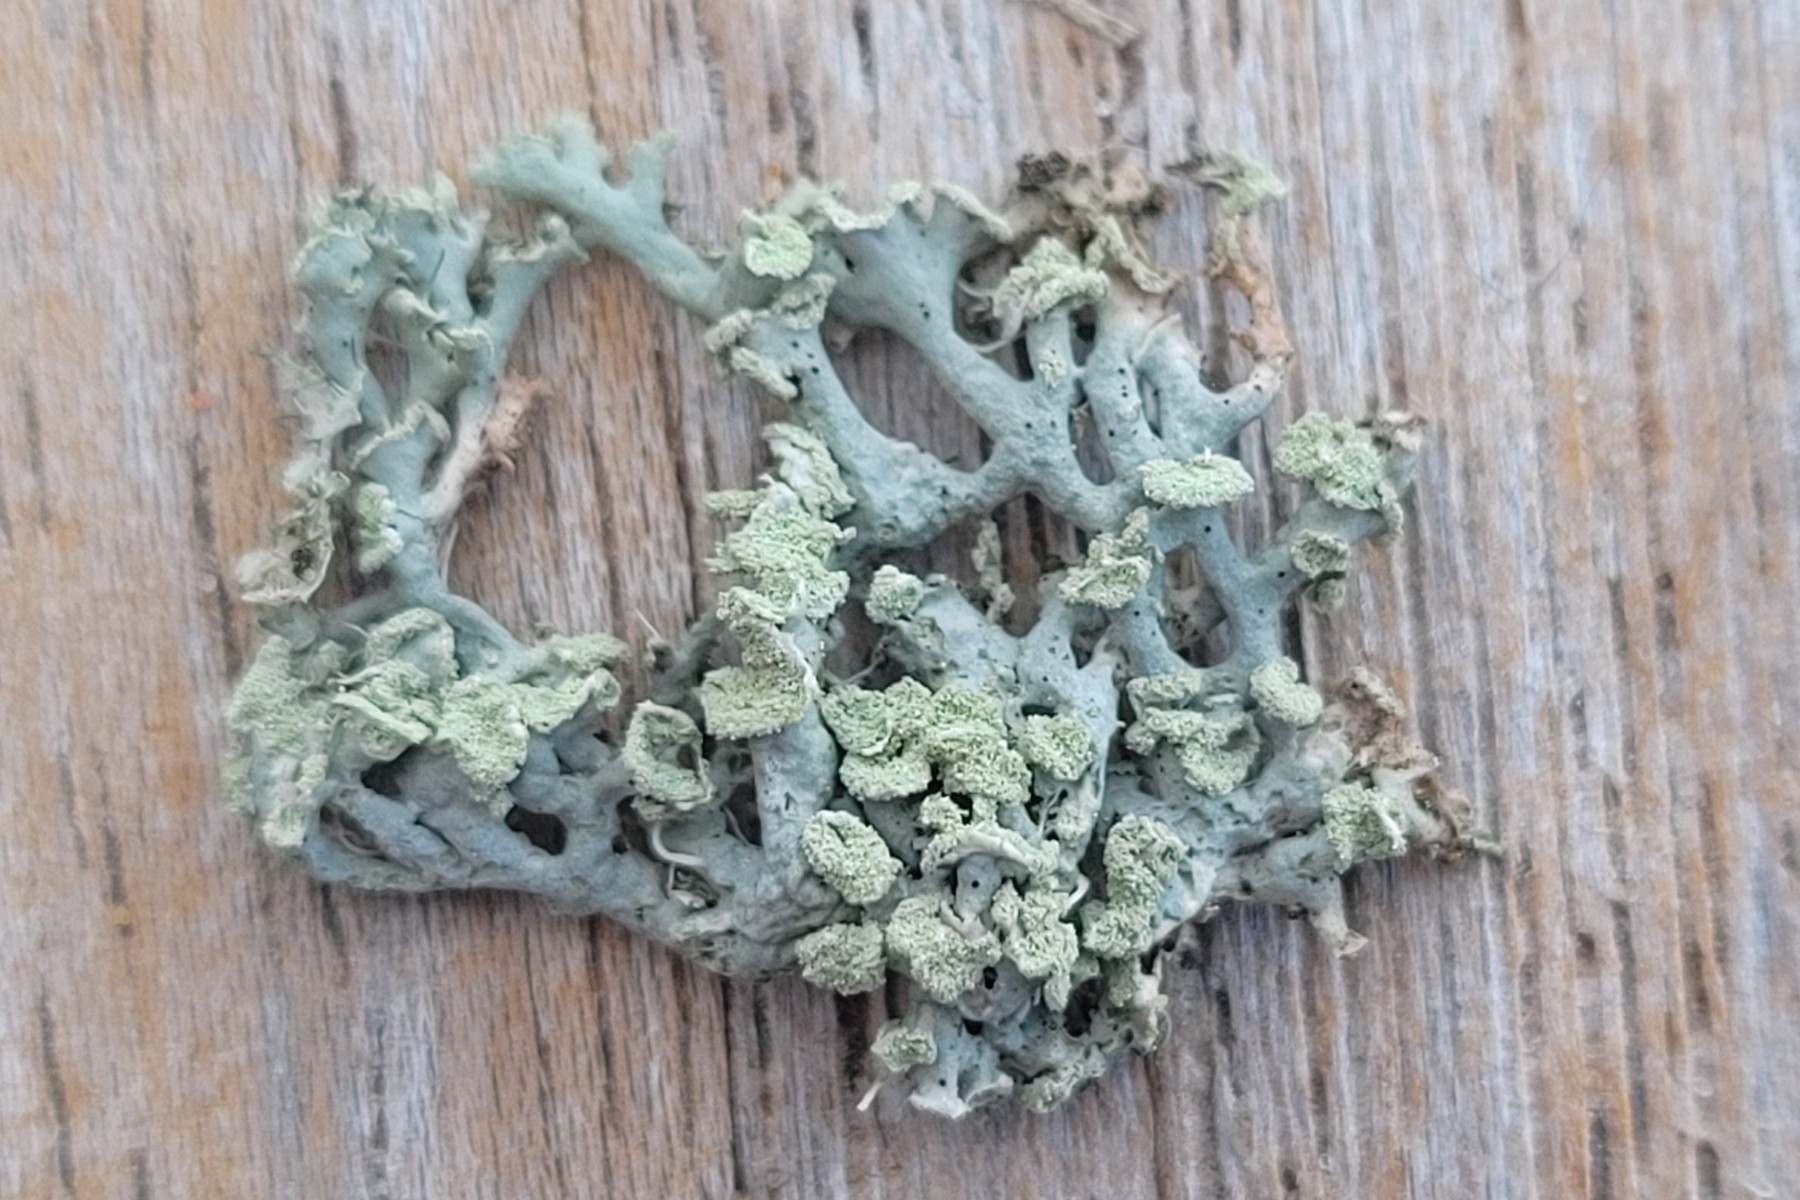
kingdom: Fungi
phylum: Ascomycota
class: Lecanoromycetes
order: Lecanorales
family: Parmeliaceae
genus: Hypogymnia
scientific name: Hypogymnia physodes
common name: almindelig kvistlav
